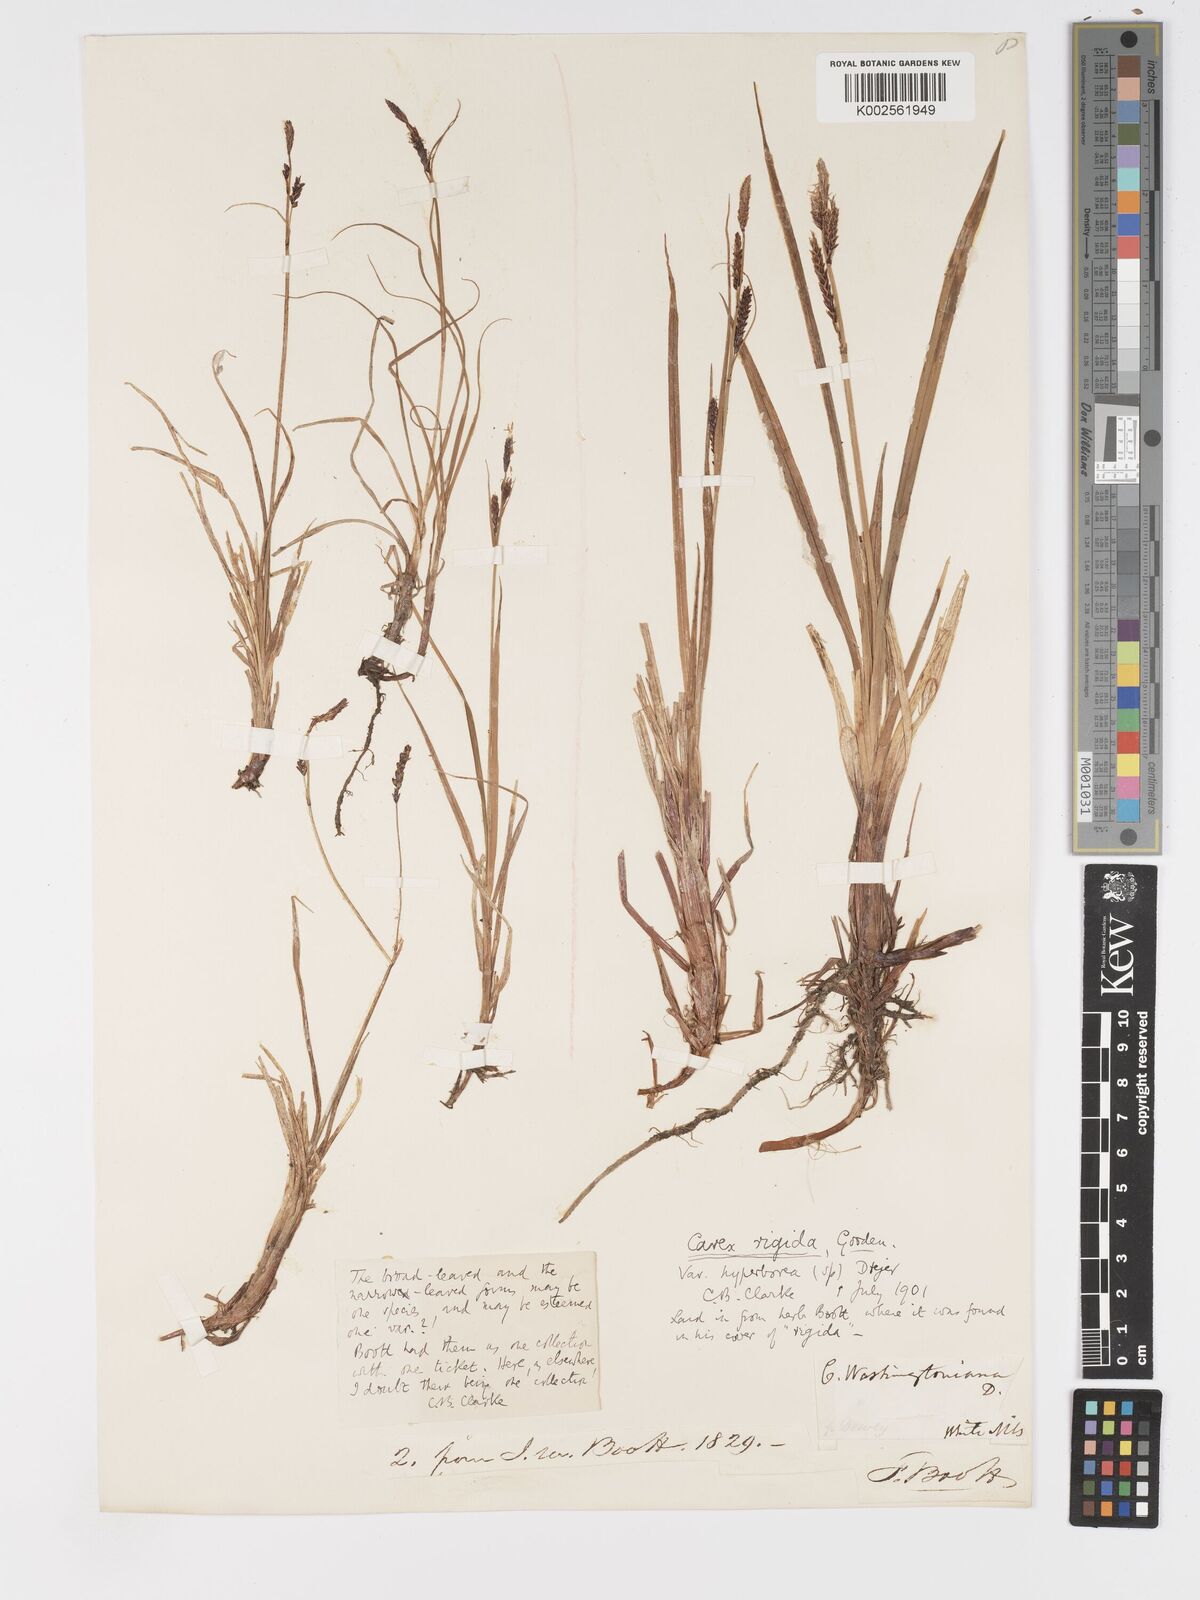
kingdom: Plantae
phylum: Tracheophyta
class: Liliopsida
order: Poales
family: Cyperaceae
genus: Carex
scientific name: Carex bigelowii
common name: Stiff sedge
